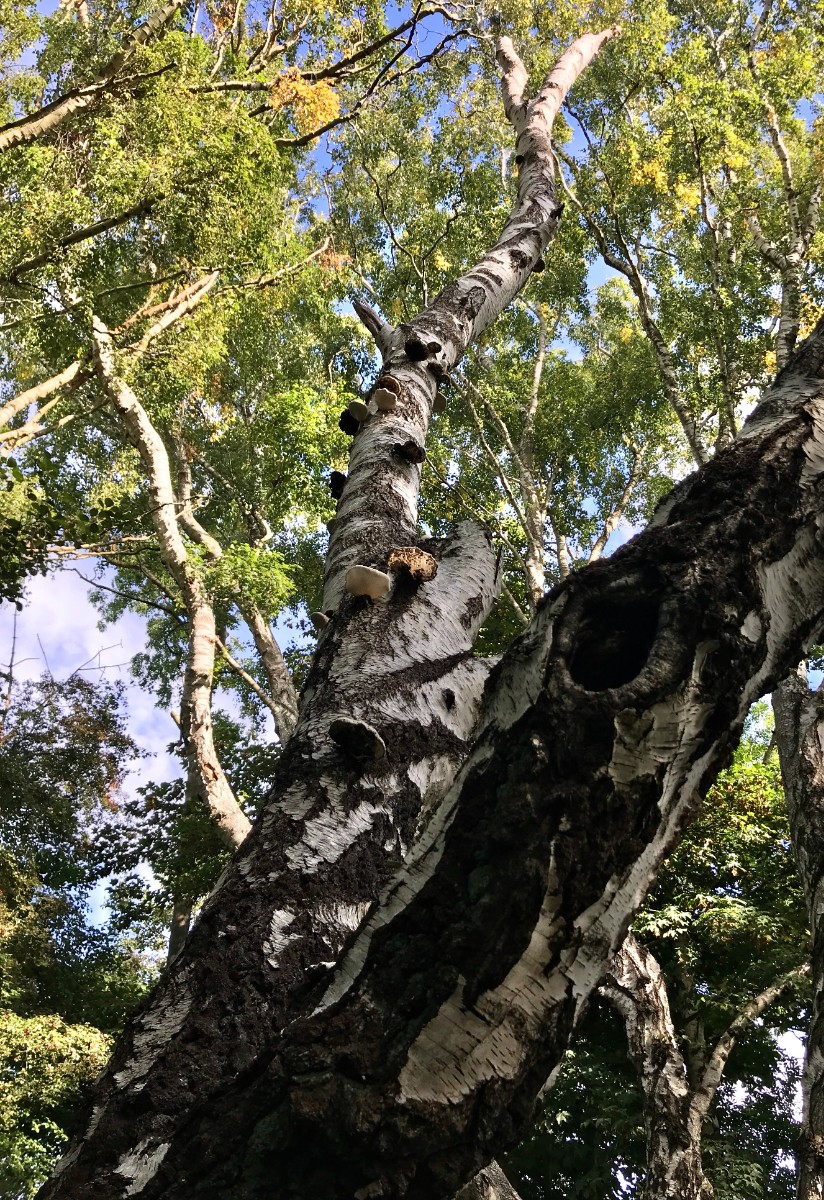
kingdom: Fungi
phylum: Basidiomycota
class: Agaricomycetes
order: Polyporales
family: Fomitopsidaceae
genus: Fomitopsis
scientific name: Fomitopsis betulina
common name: birkeporesvamp
